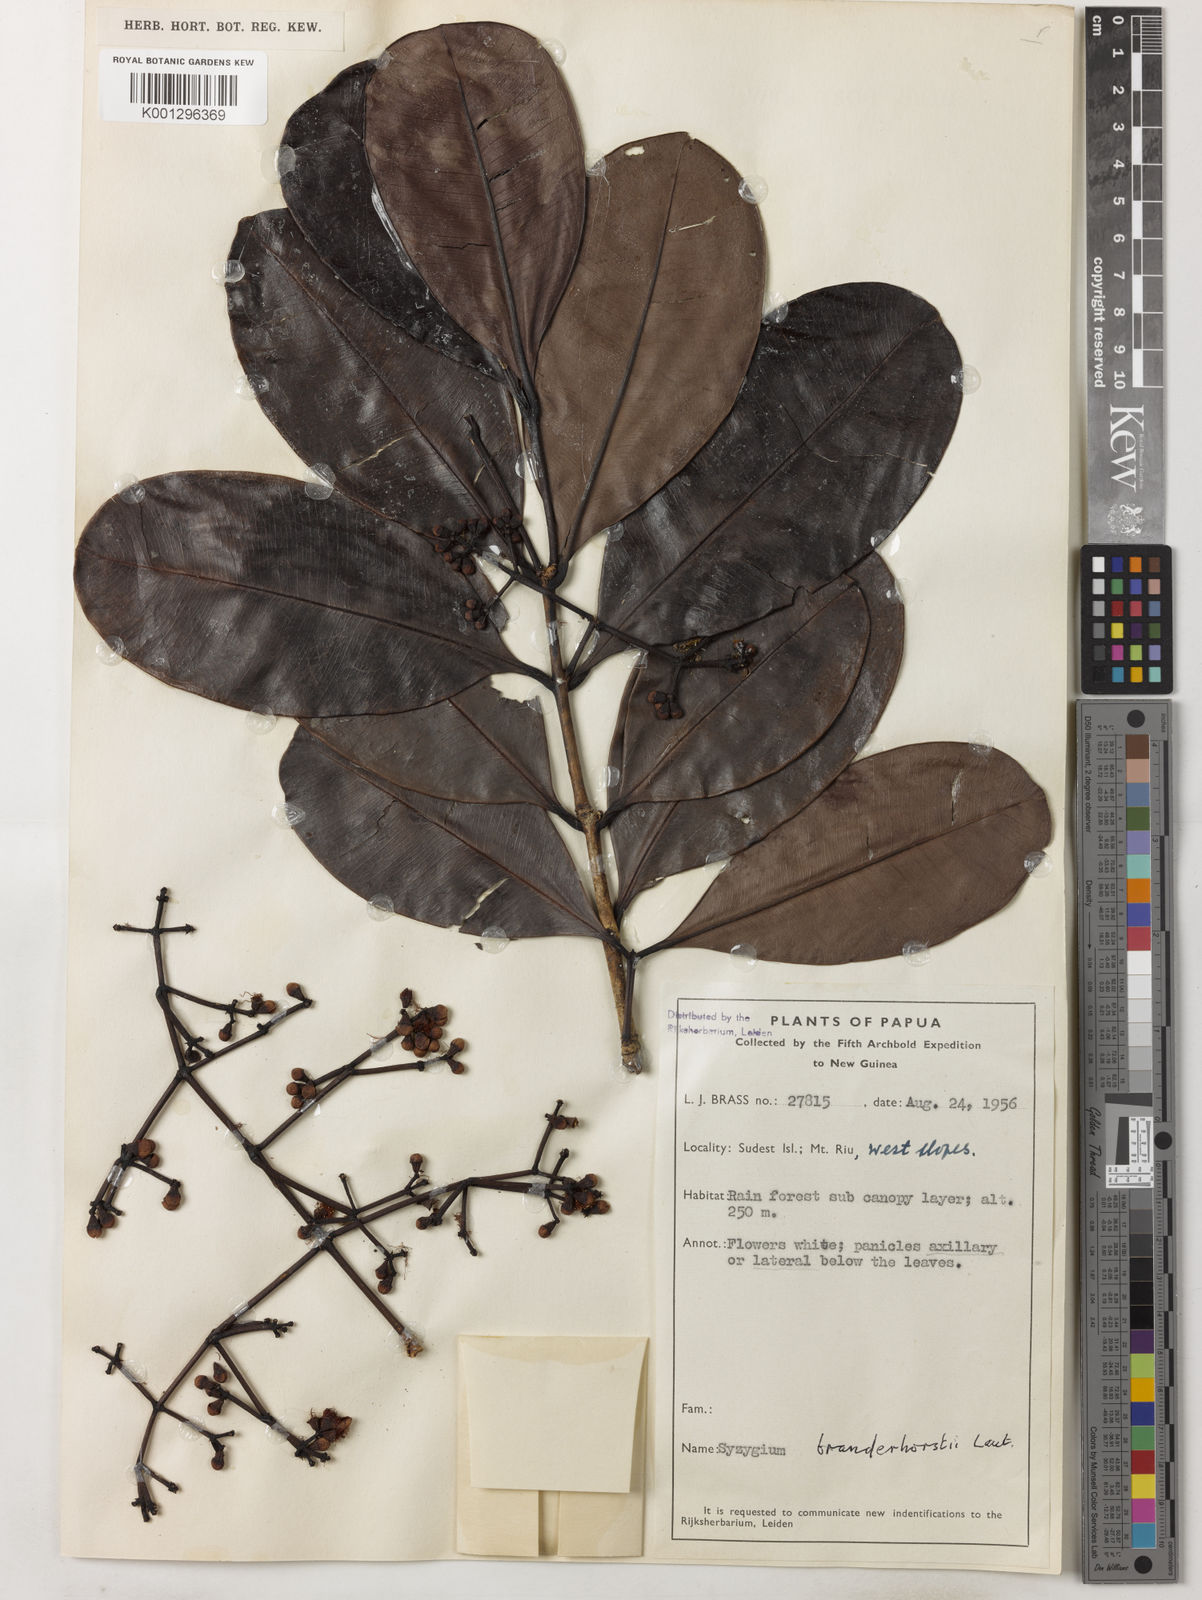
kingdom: Plantae
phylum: Tracheophyta
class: Magnoliopsida
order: Myrtales
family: Myrtaceae
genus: Syzygium
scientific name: Syzygium branderhorstii
